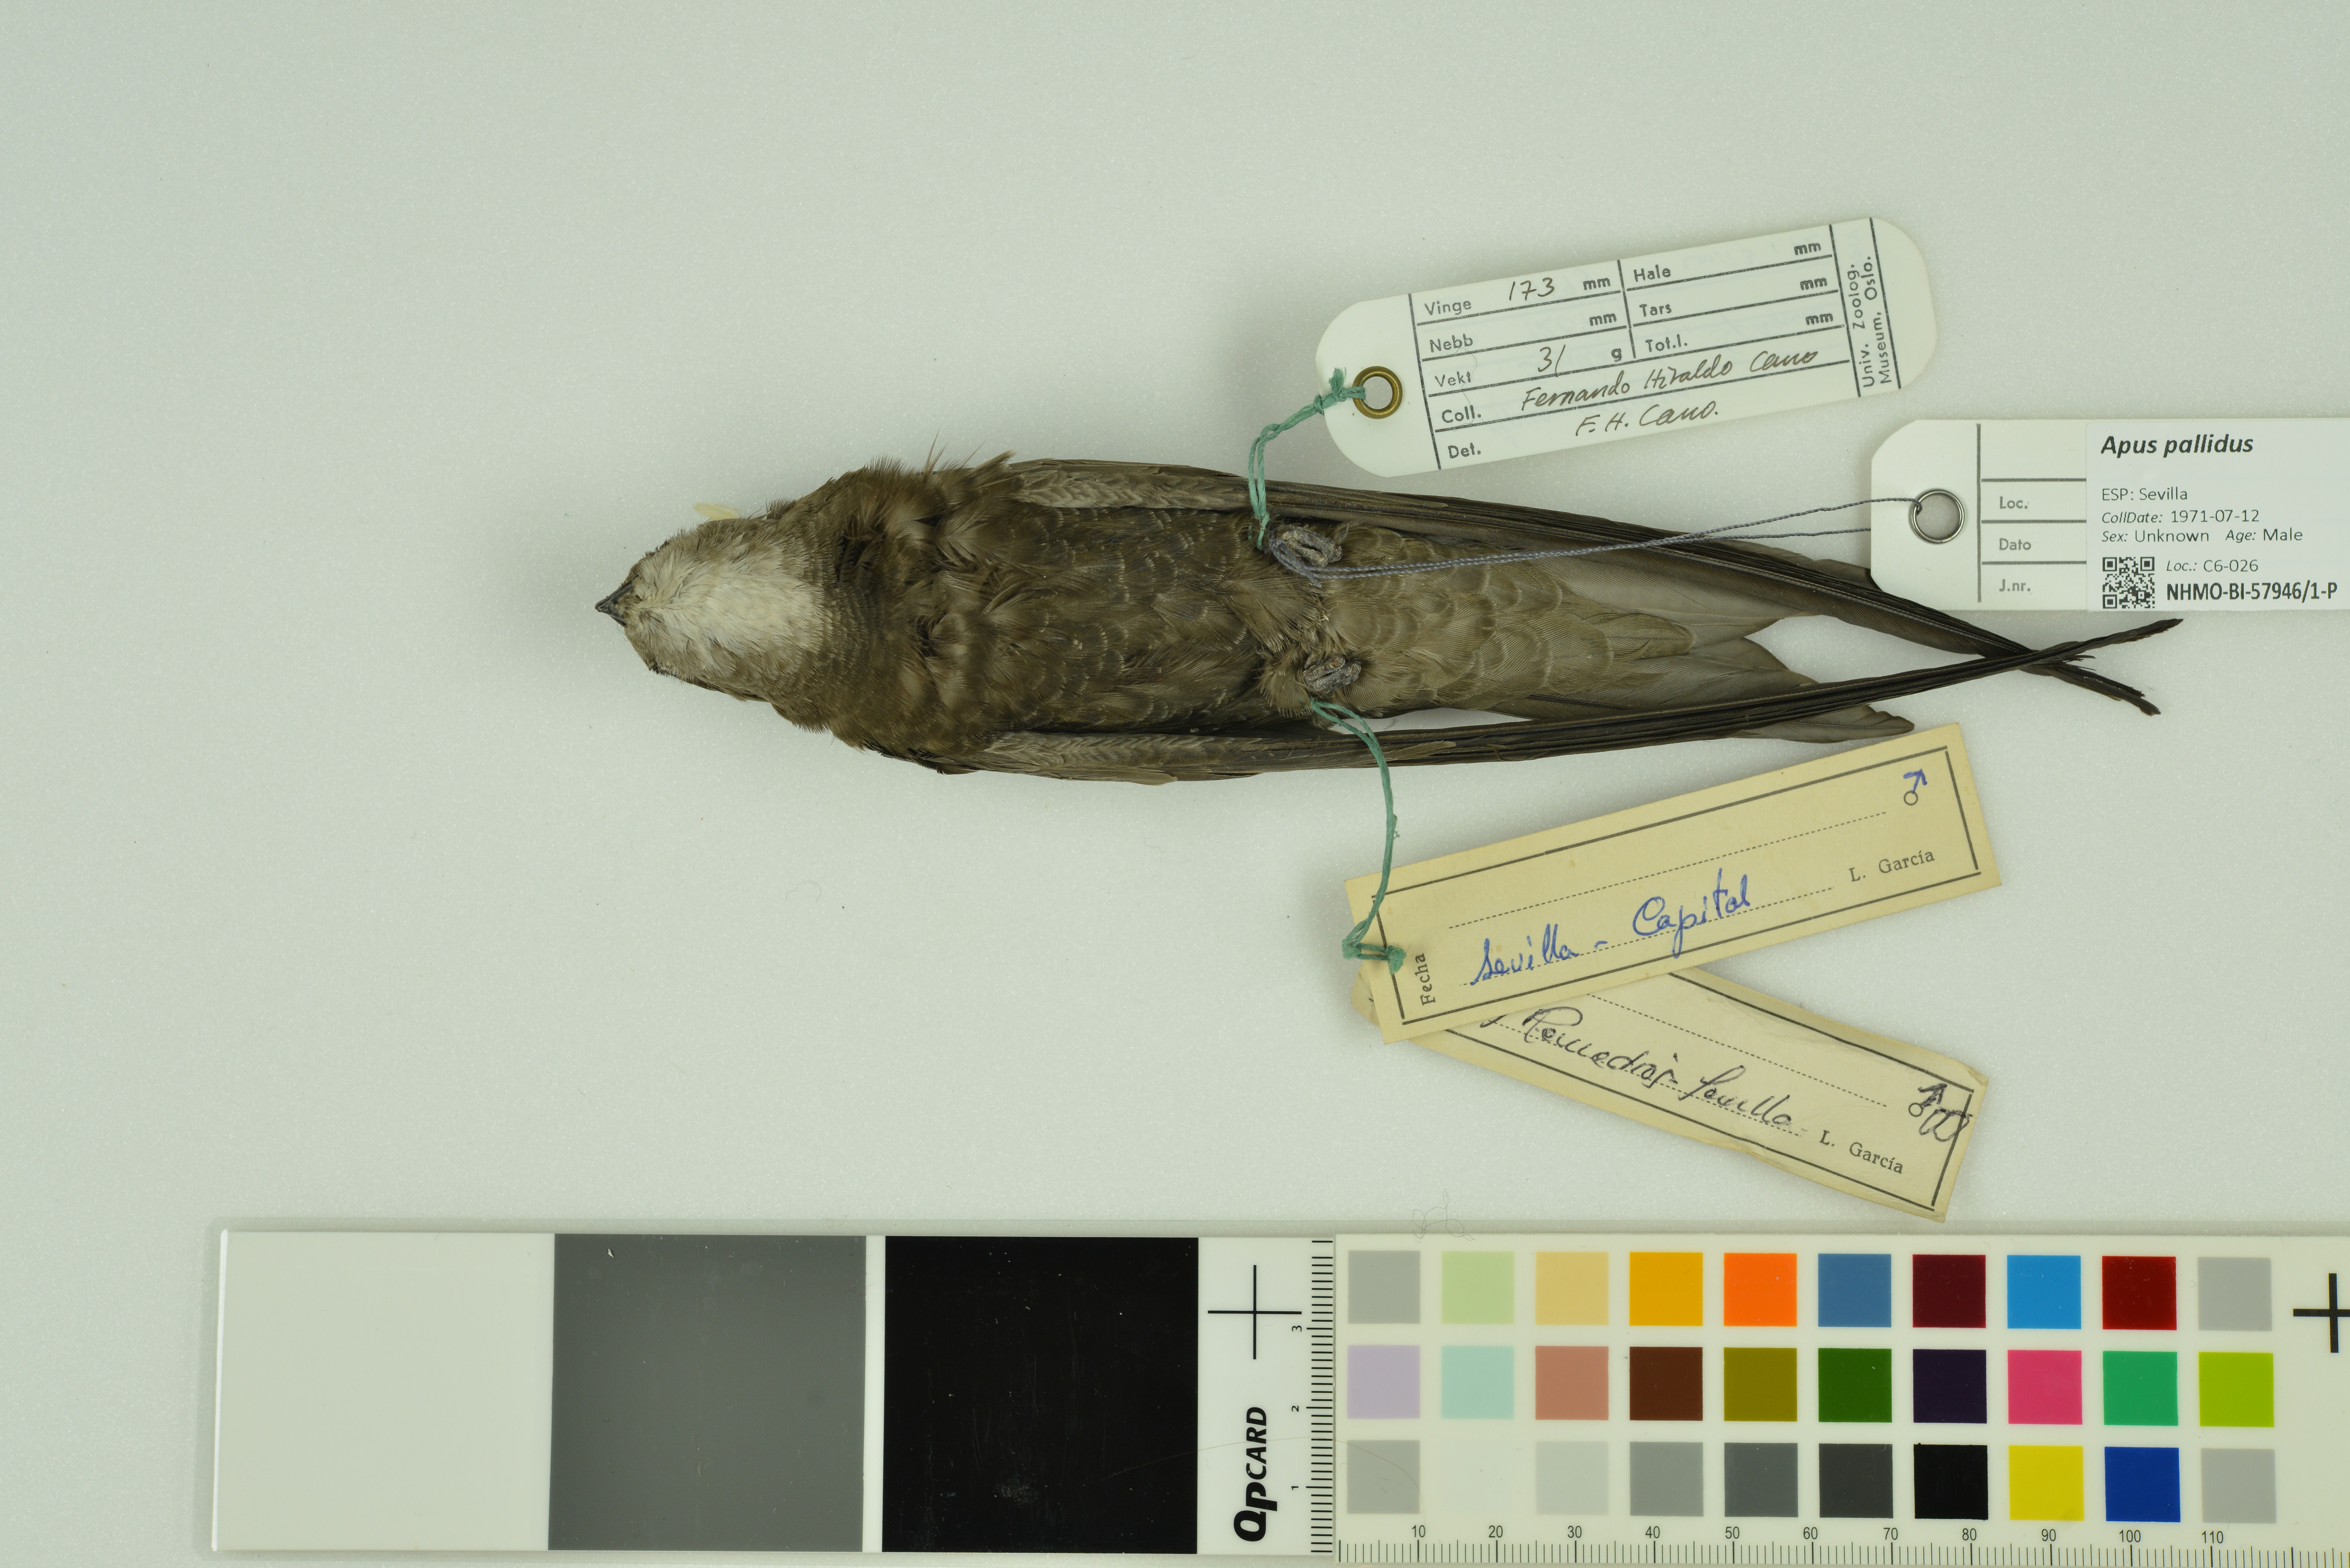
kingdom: Animalia
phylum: Chordata
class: Aves
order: Apodiformes
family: Apodidae
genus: Apus
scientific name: Apus pallidus
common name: Pallid swift
